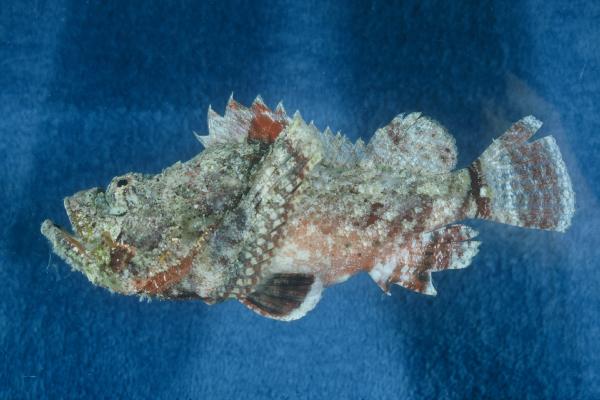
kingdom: Animalia
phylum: Chordata
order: Scorpaeniformes
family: Scorpaenidae
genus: Scorpaenopsis
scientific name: Scorpaenopsis diabolus
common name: False stonefish
